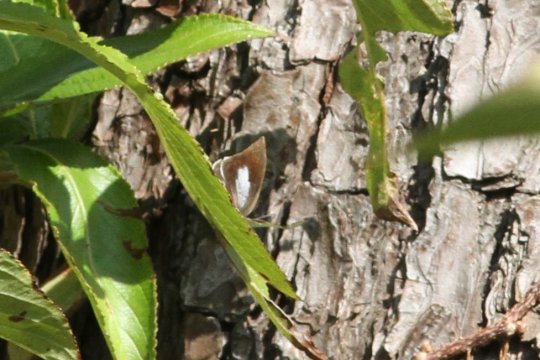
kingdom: Animalia
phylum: Arthropoda
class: Insecta
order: Lepidoptera
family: Lycaenidae
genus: Curetis
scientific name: Curetis acuta
